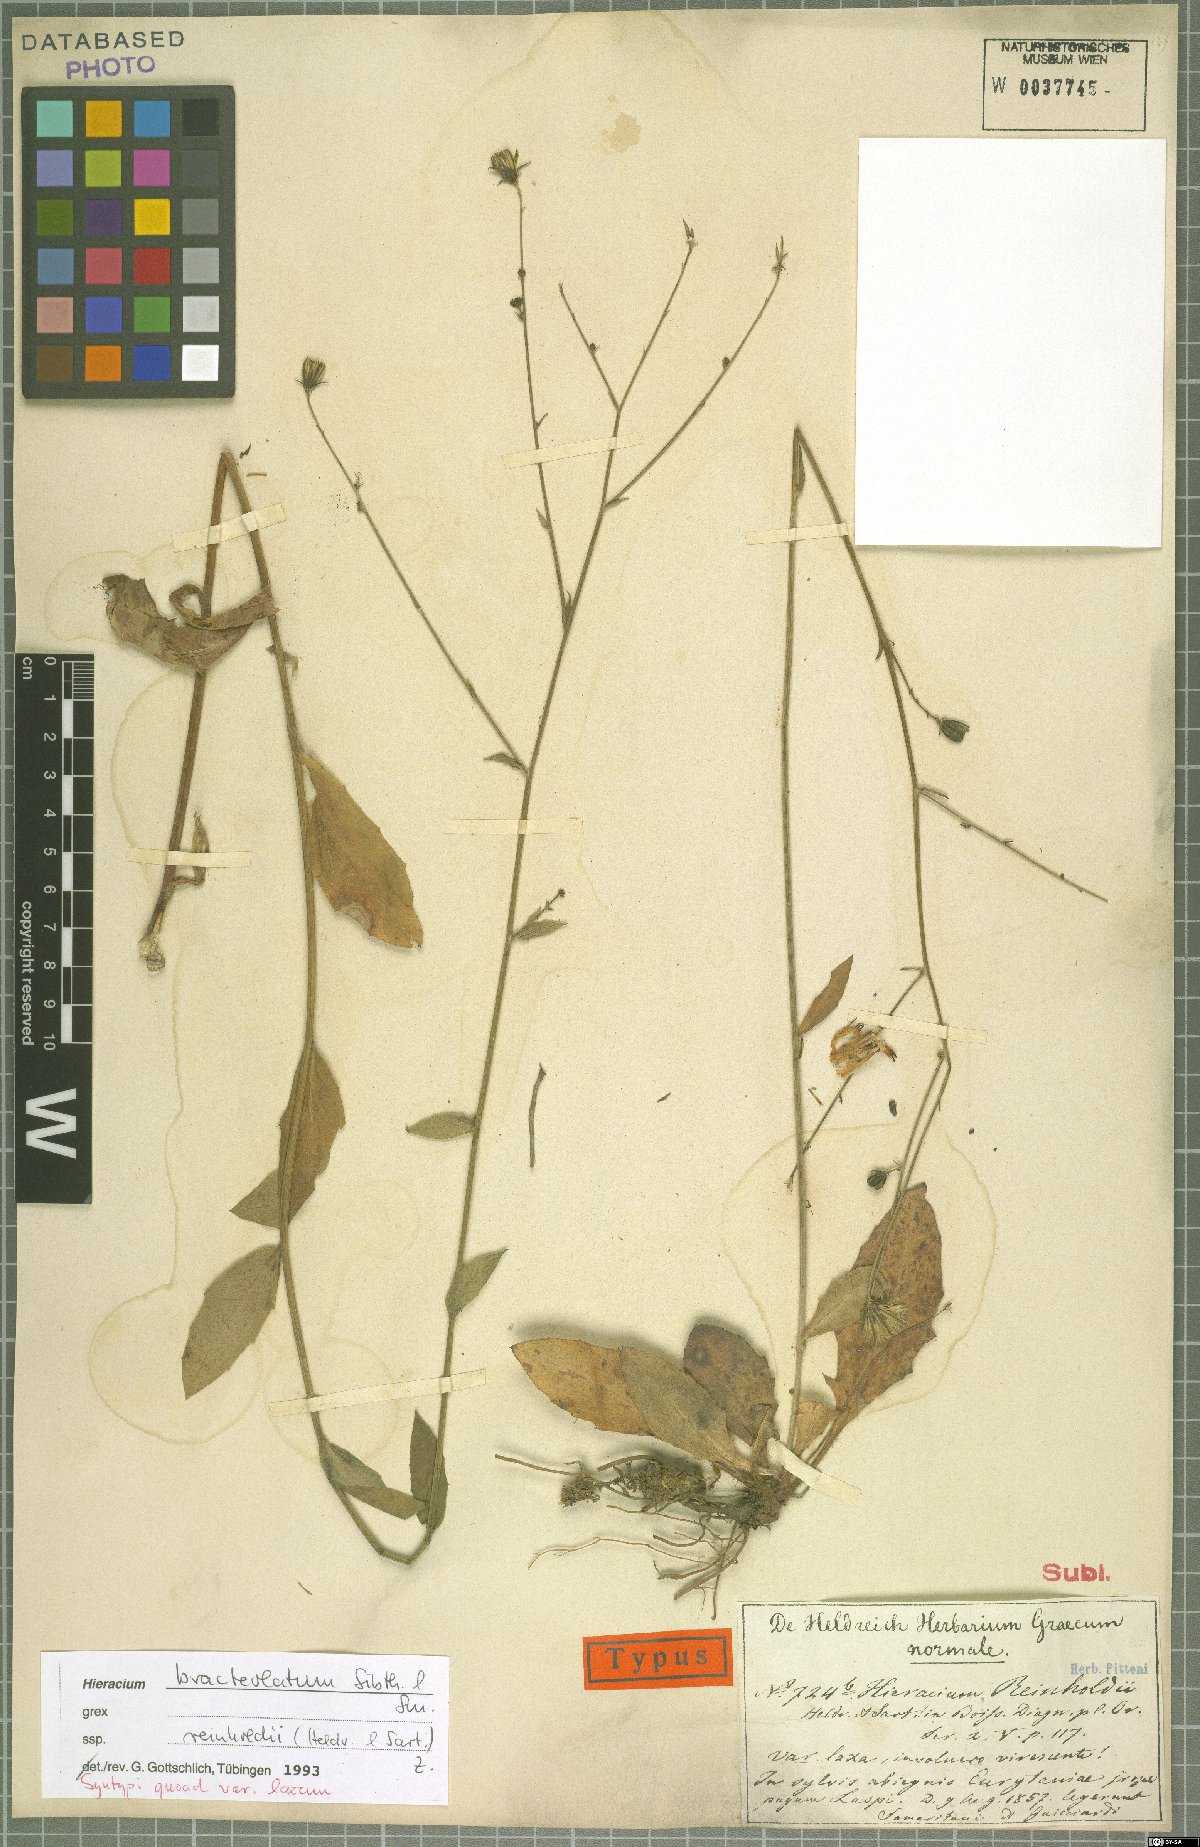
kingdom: Plantae
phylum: Tracheophyta
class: Magnoliopsida
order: Asterales
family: Asteraceae
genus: Hieracium
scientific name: Hieracium bracteolatum
